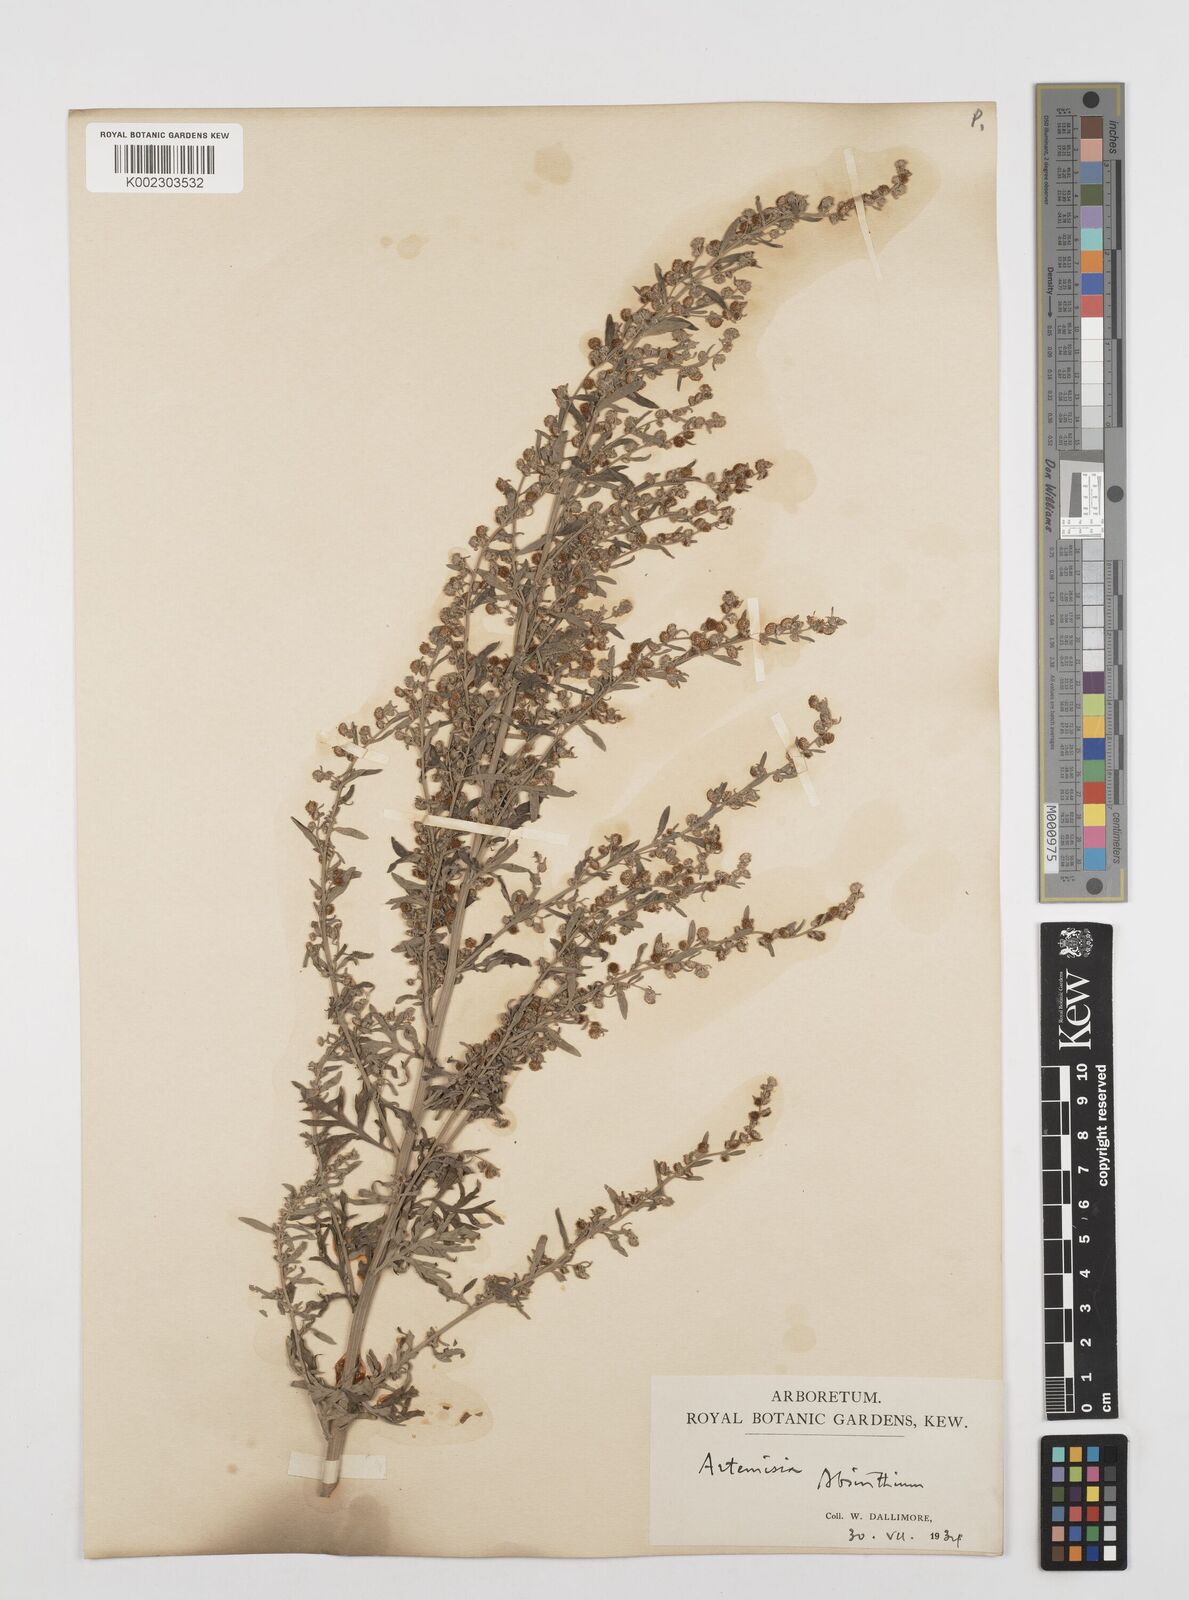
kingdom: Plantae
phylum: Tracheophyta
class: Magnoliopsida
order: Asterales
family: Asteraceae
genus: Artemisia
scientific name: Artemisia absinthium
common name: Wormwood
